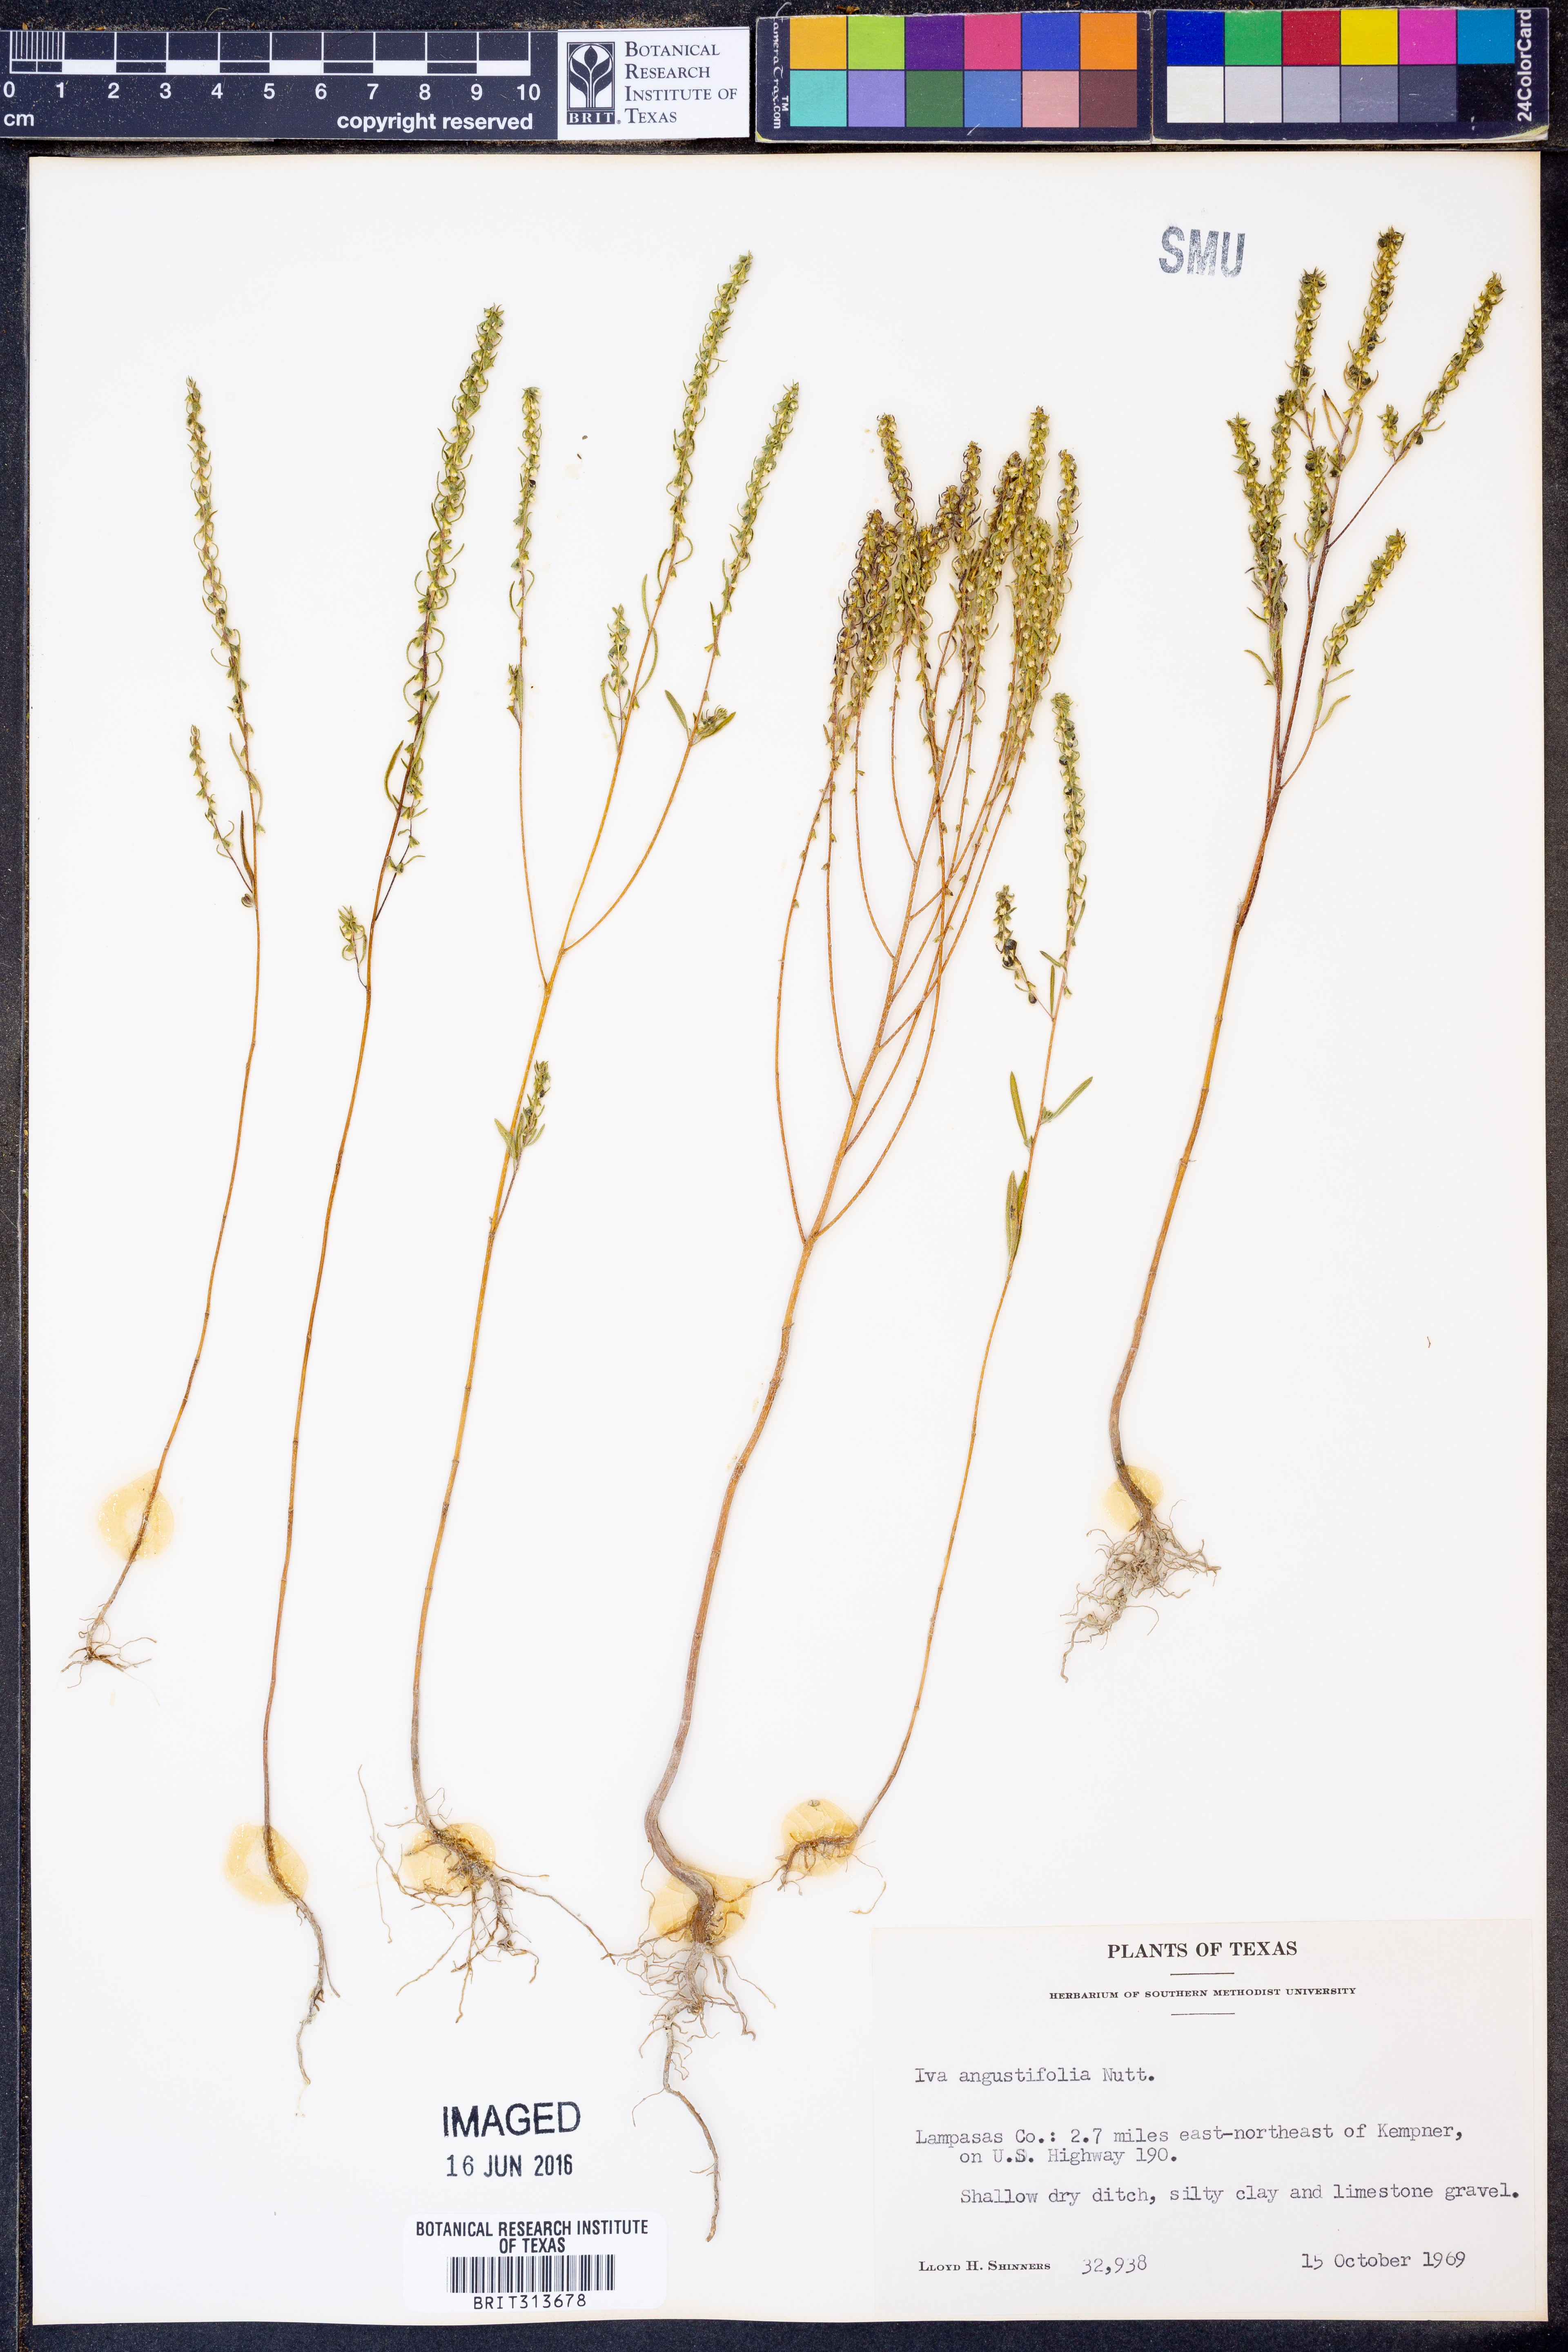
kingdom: Plantae
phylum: Tracheophyta
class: Magnoliopsida
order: Asterales
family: Asteraceae
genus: Iva
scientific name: Iva asperifolia
